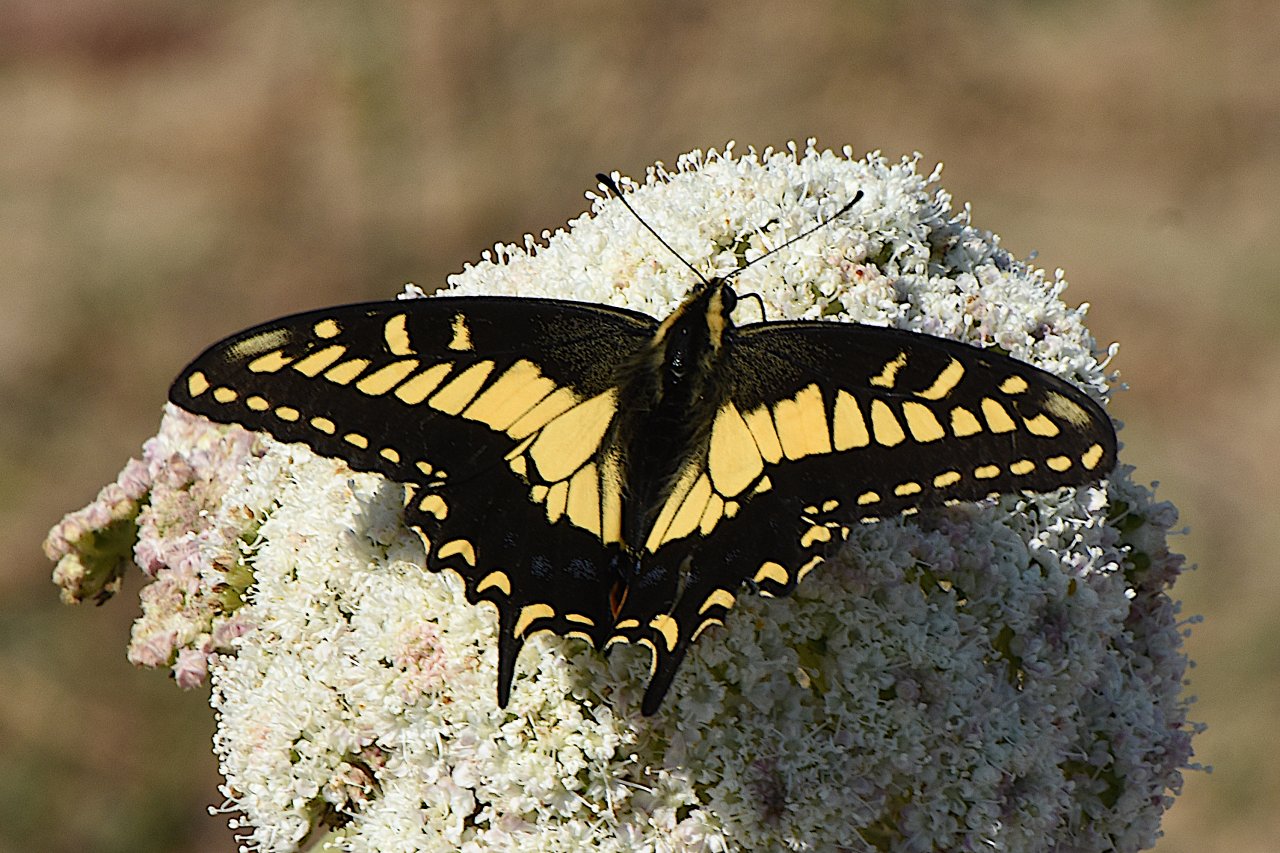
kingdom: Animalia
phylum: Arthropoda
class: Insecta
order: Lepidoptera
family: Papilionidae
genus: Papilio
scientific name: Papilio zelicaon
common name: Anise Swallowtail
